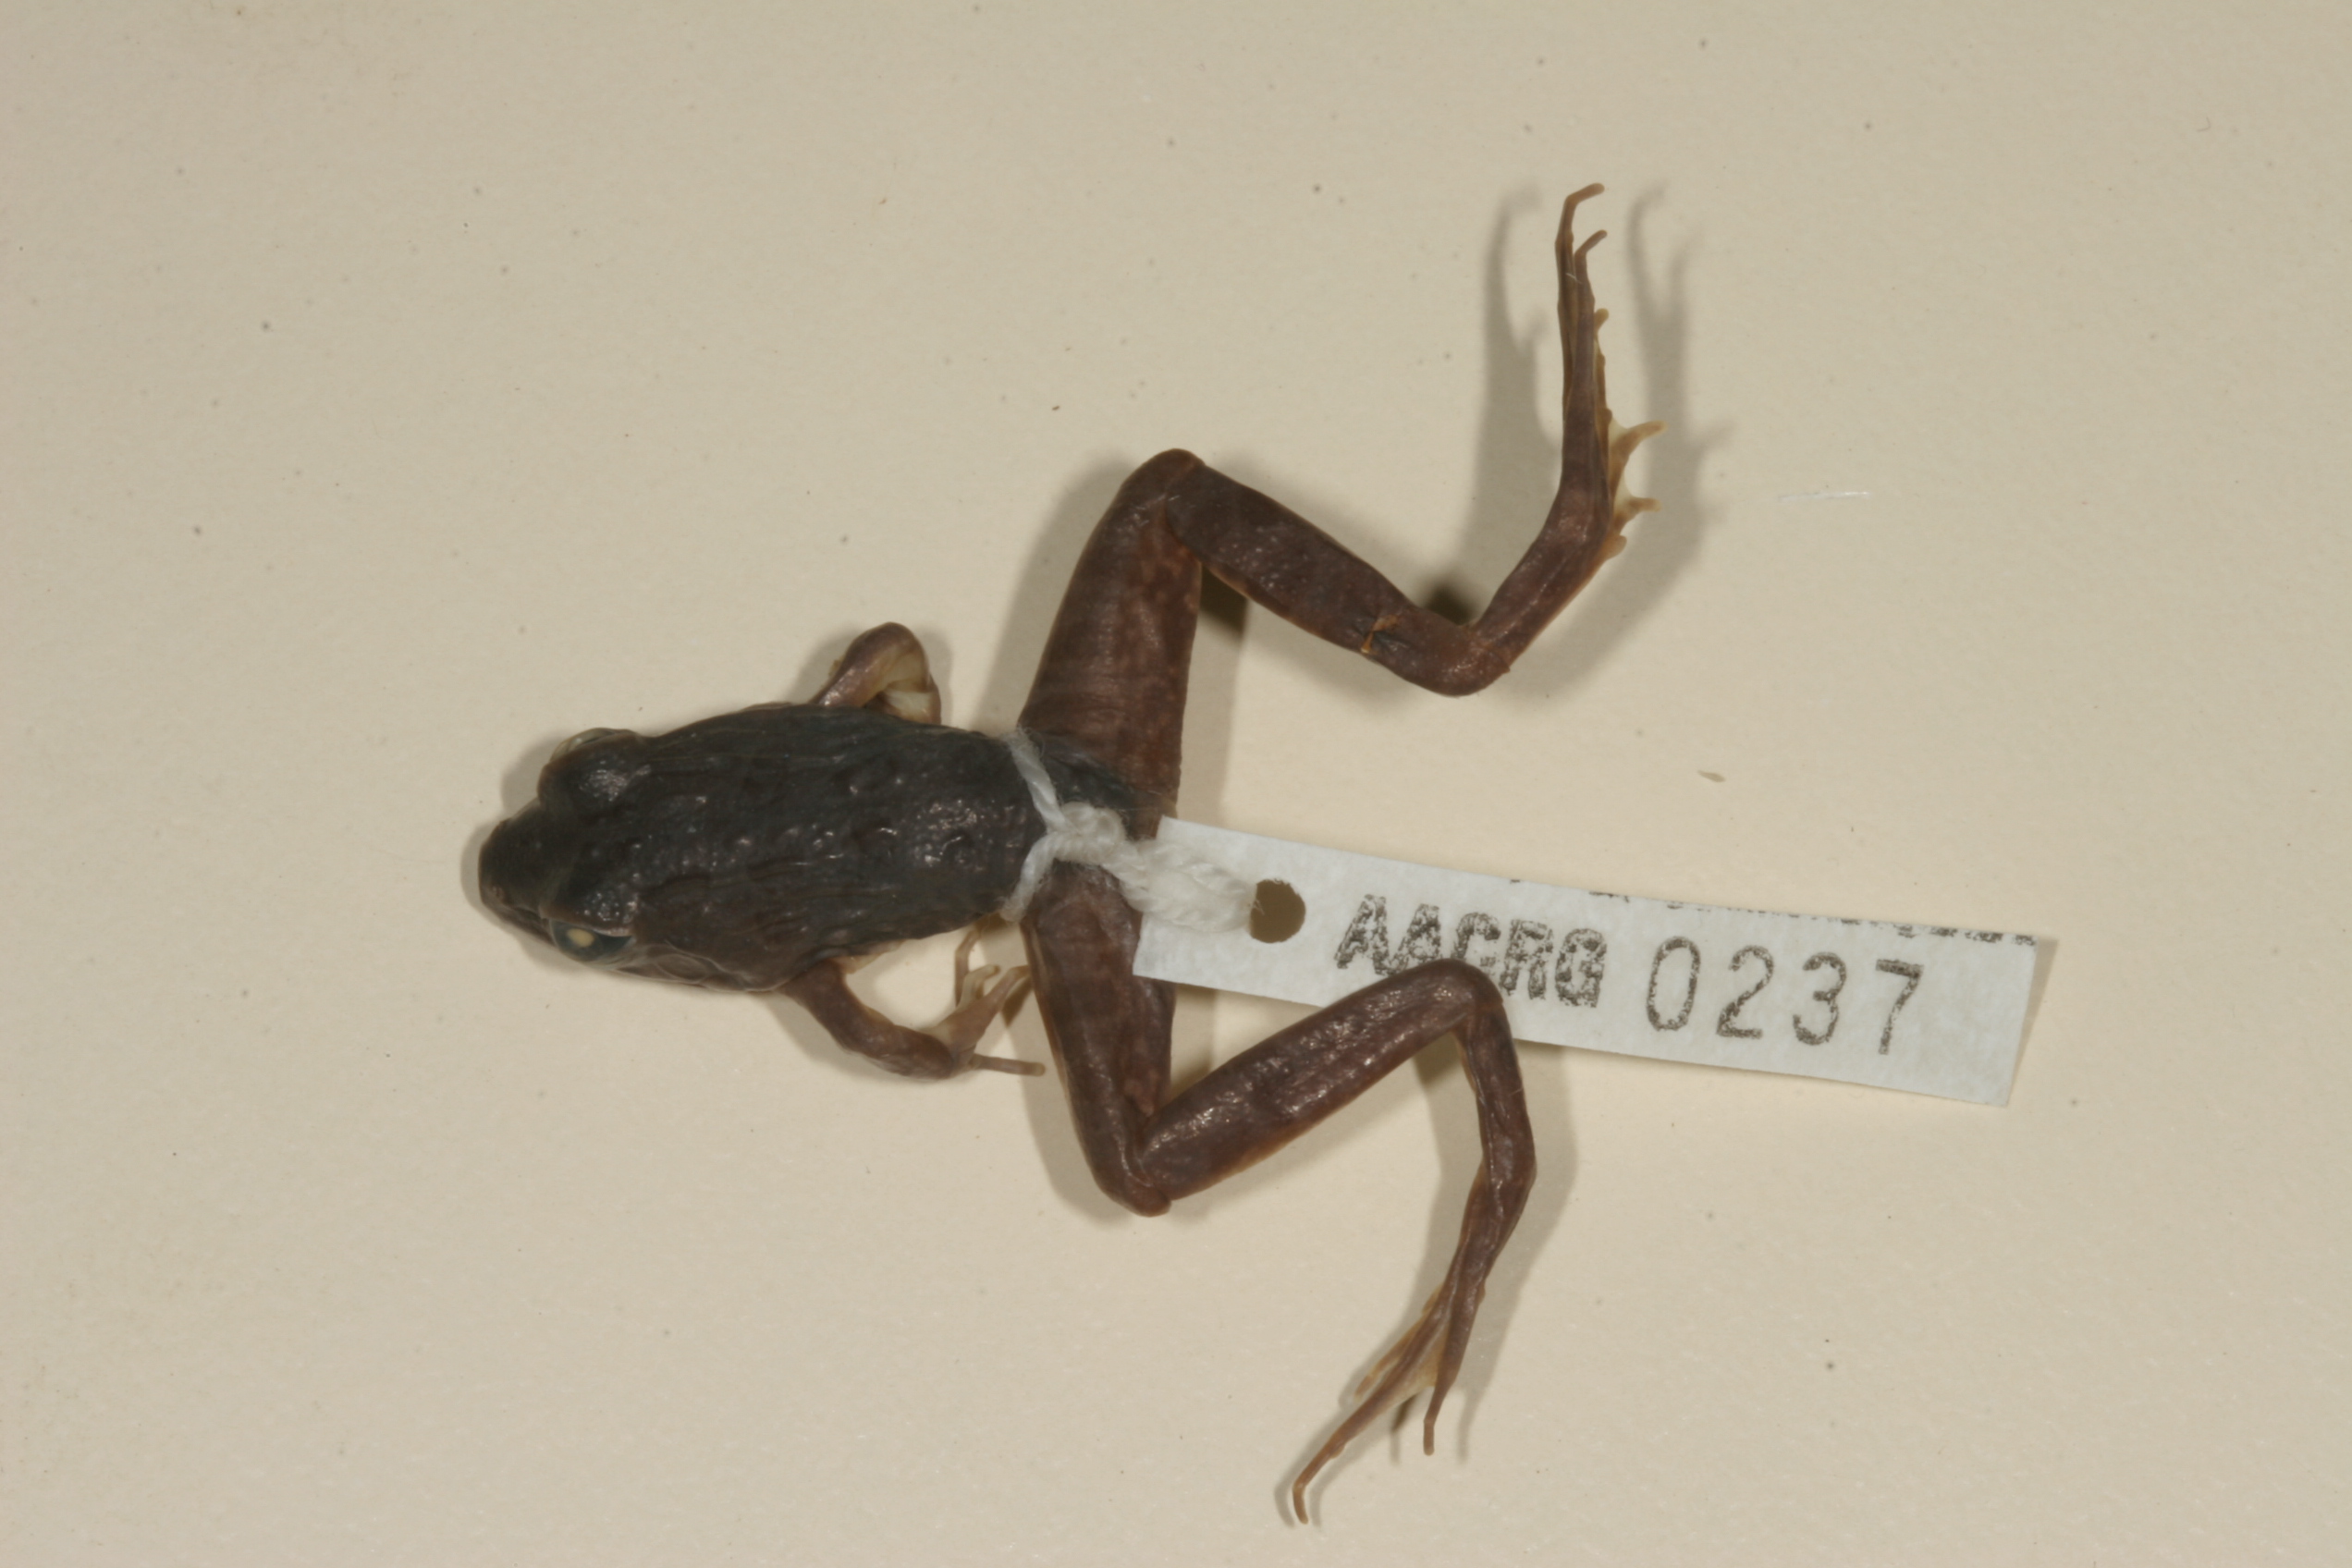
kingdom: Animalia
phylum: Chordata
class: Amphibia
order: Anura
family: Pyxicephalidae
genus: Amietia
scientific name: Amietia angolensis
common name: Dusky-throated frog
